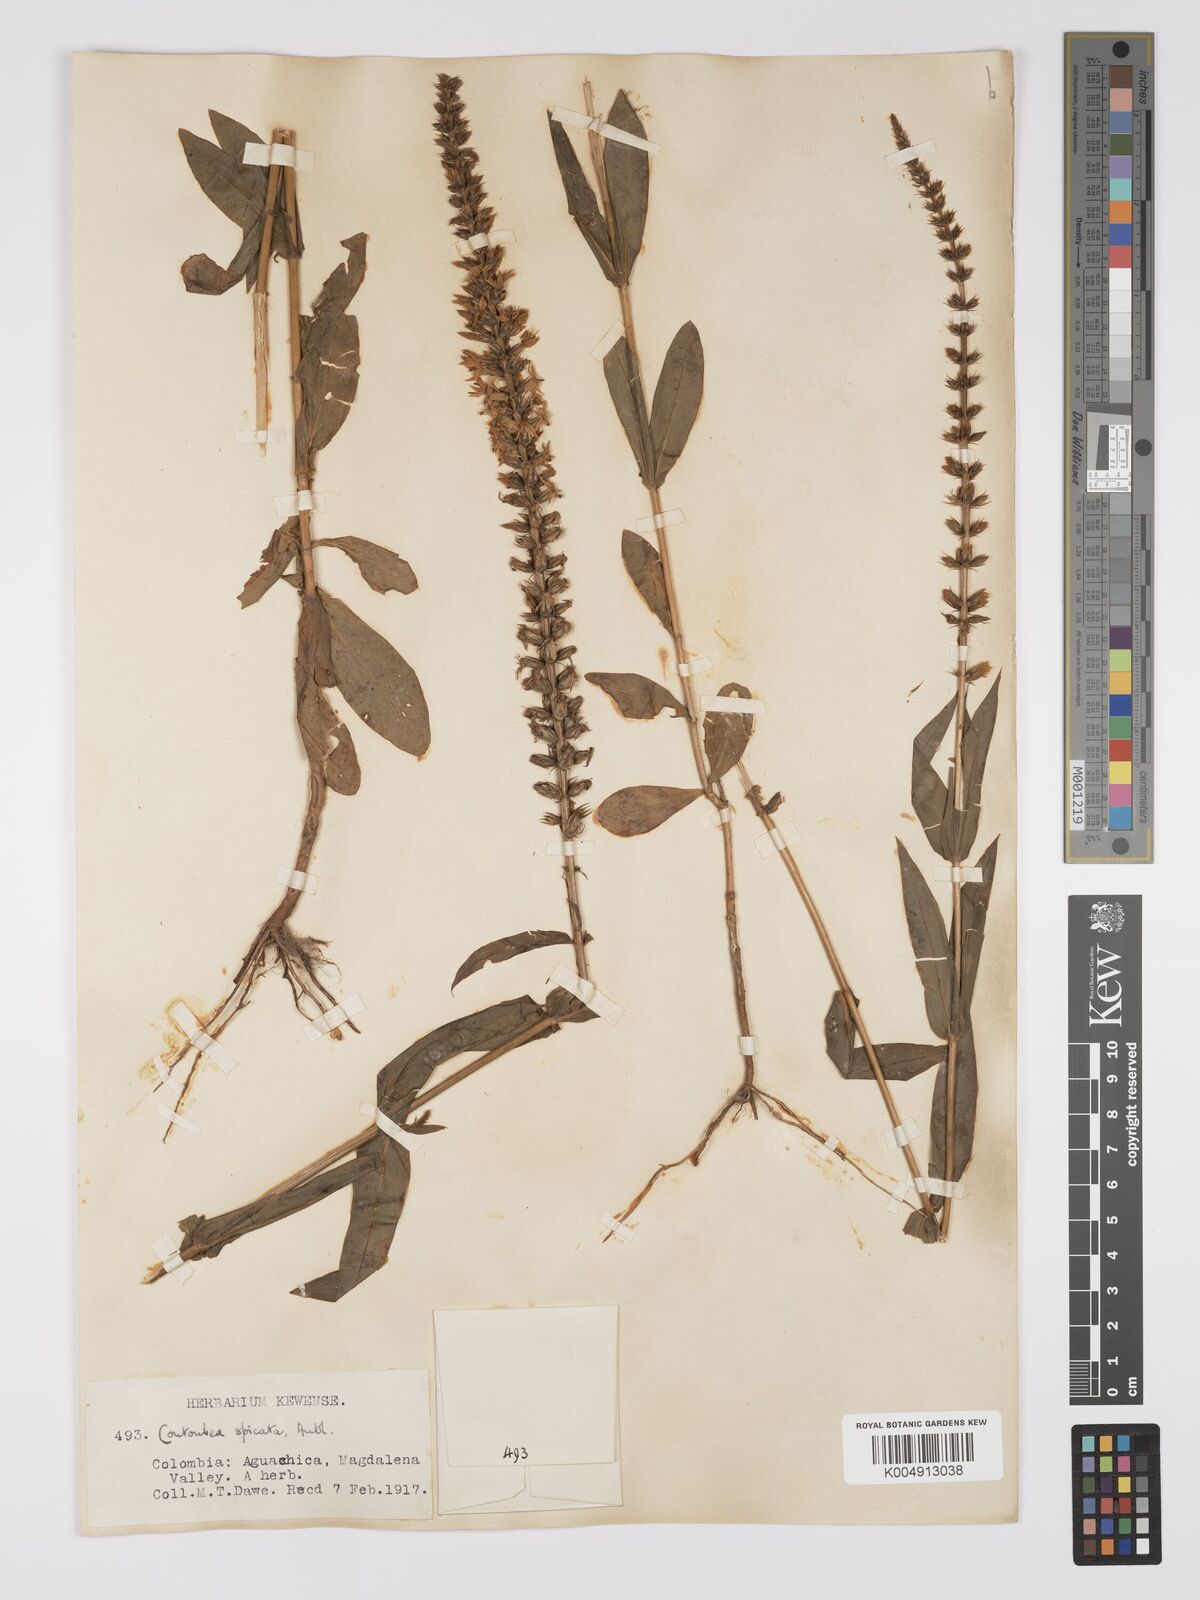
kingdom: Plantae
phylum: Tracheophyta
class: Magnoliopsida
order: Gentianales
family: Gentianaceae
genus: Coutoubea
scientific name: Coutoubea spicata
